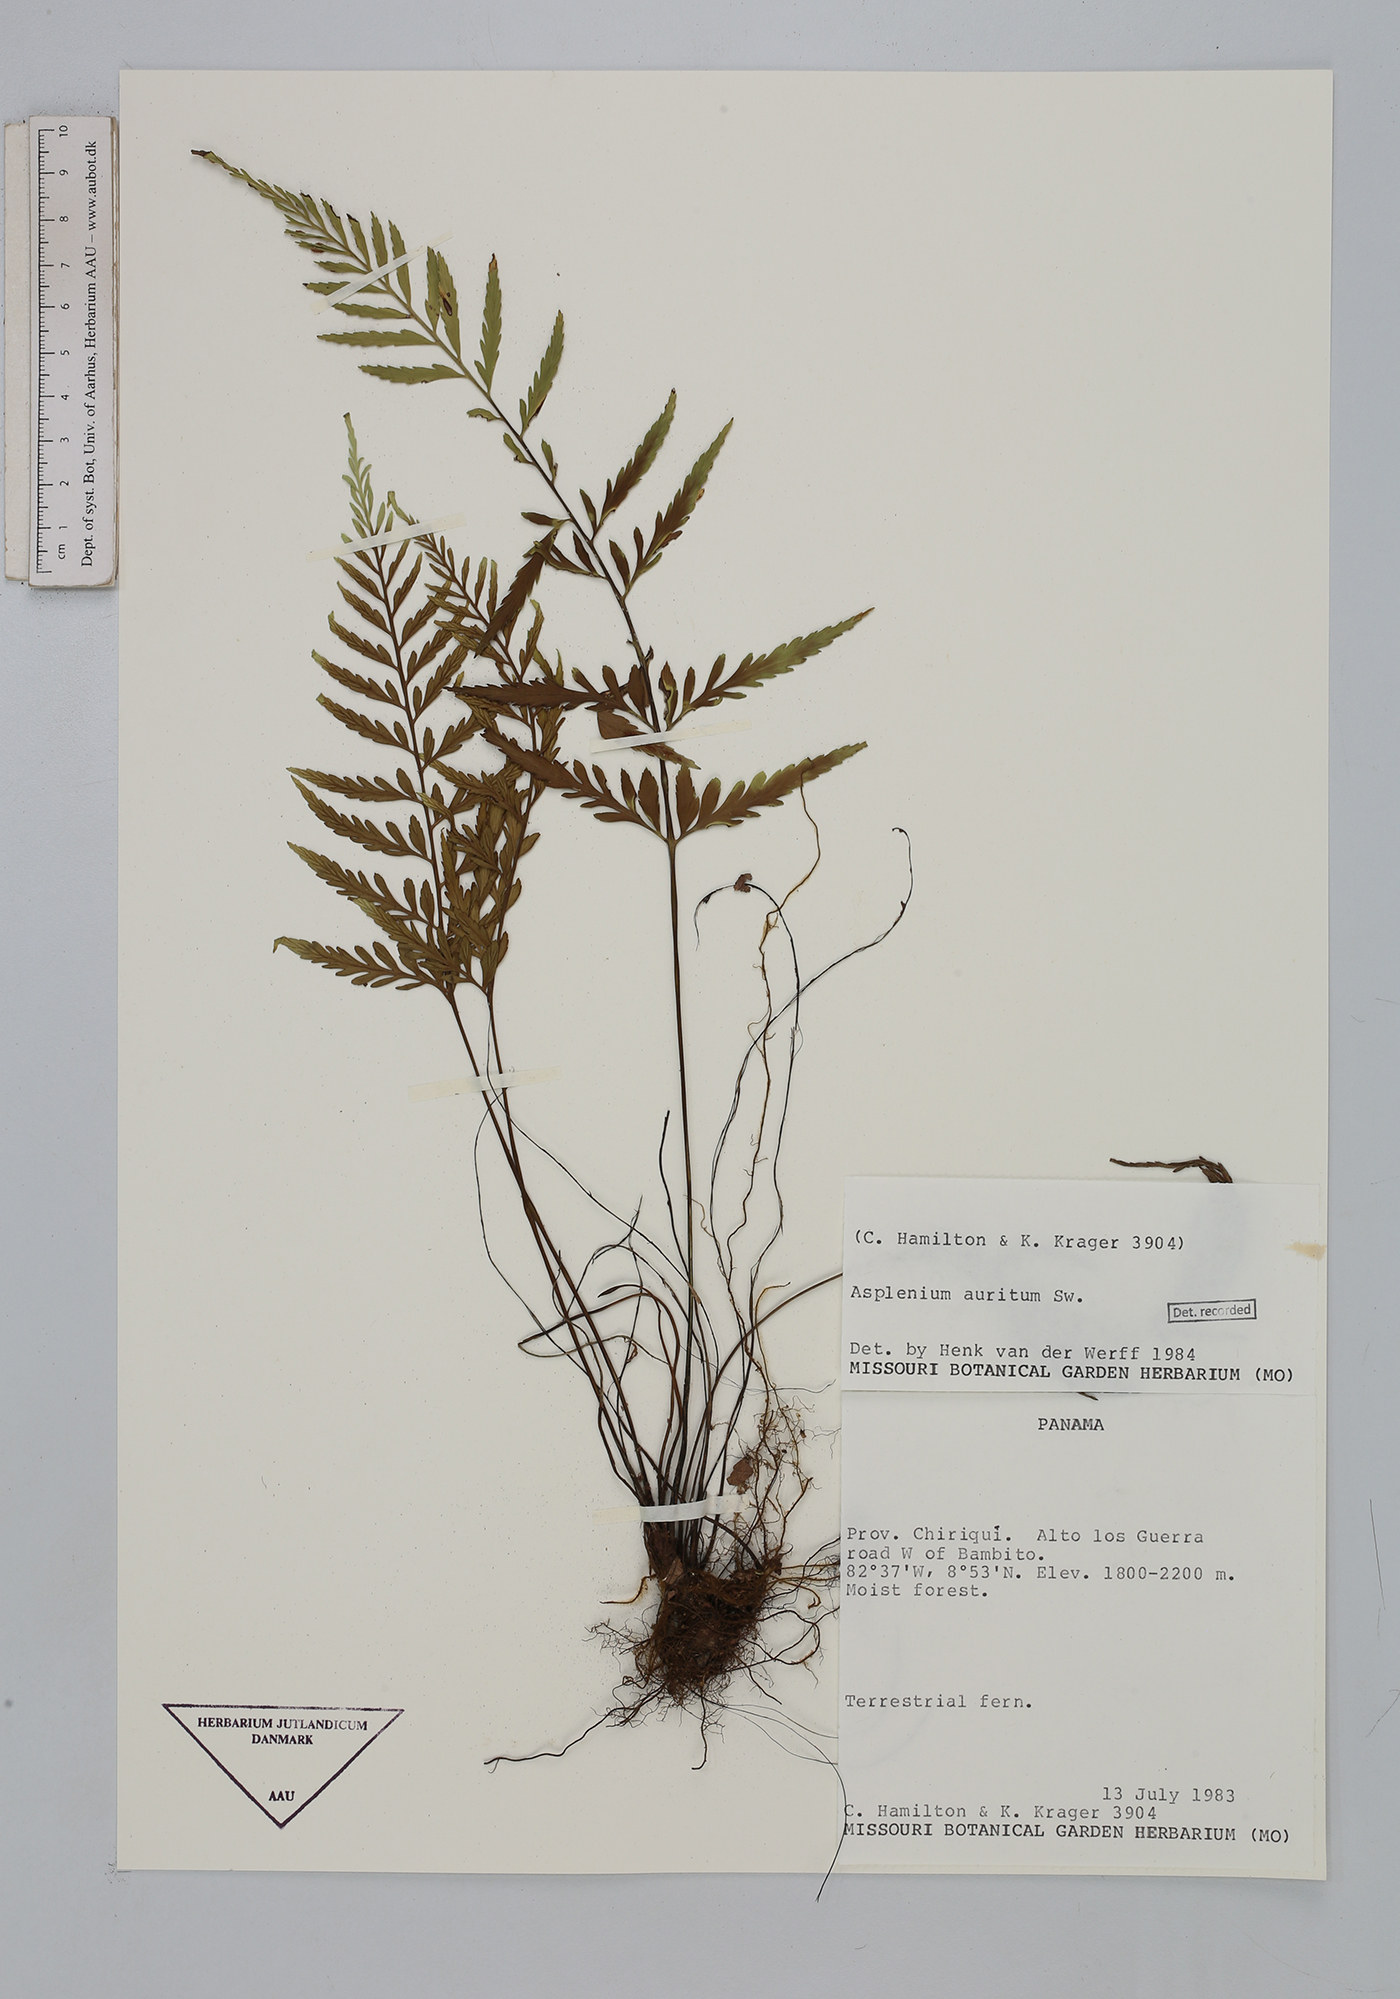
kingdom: Plantae
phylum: Tracheophyta
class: Polypodiopsida
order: Polypodiales
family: Aspleniaceae
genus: Asplenium
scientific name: Asplenium auritum
